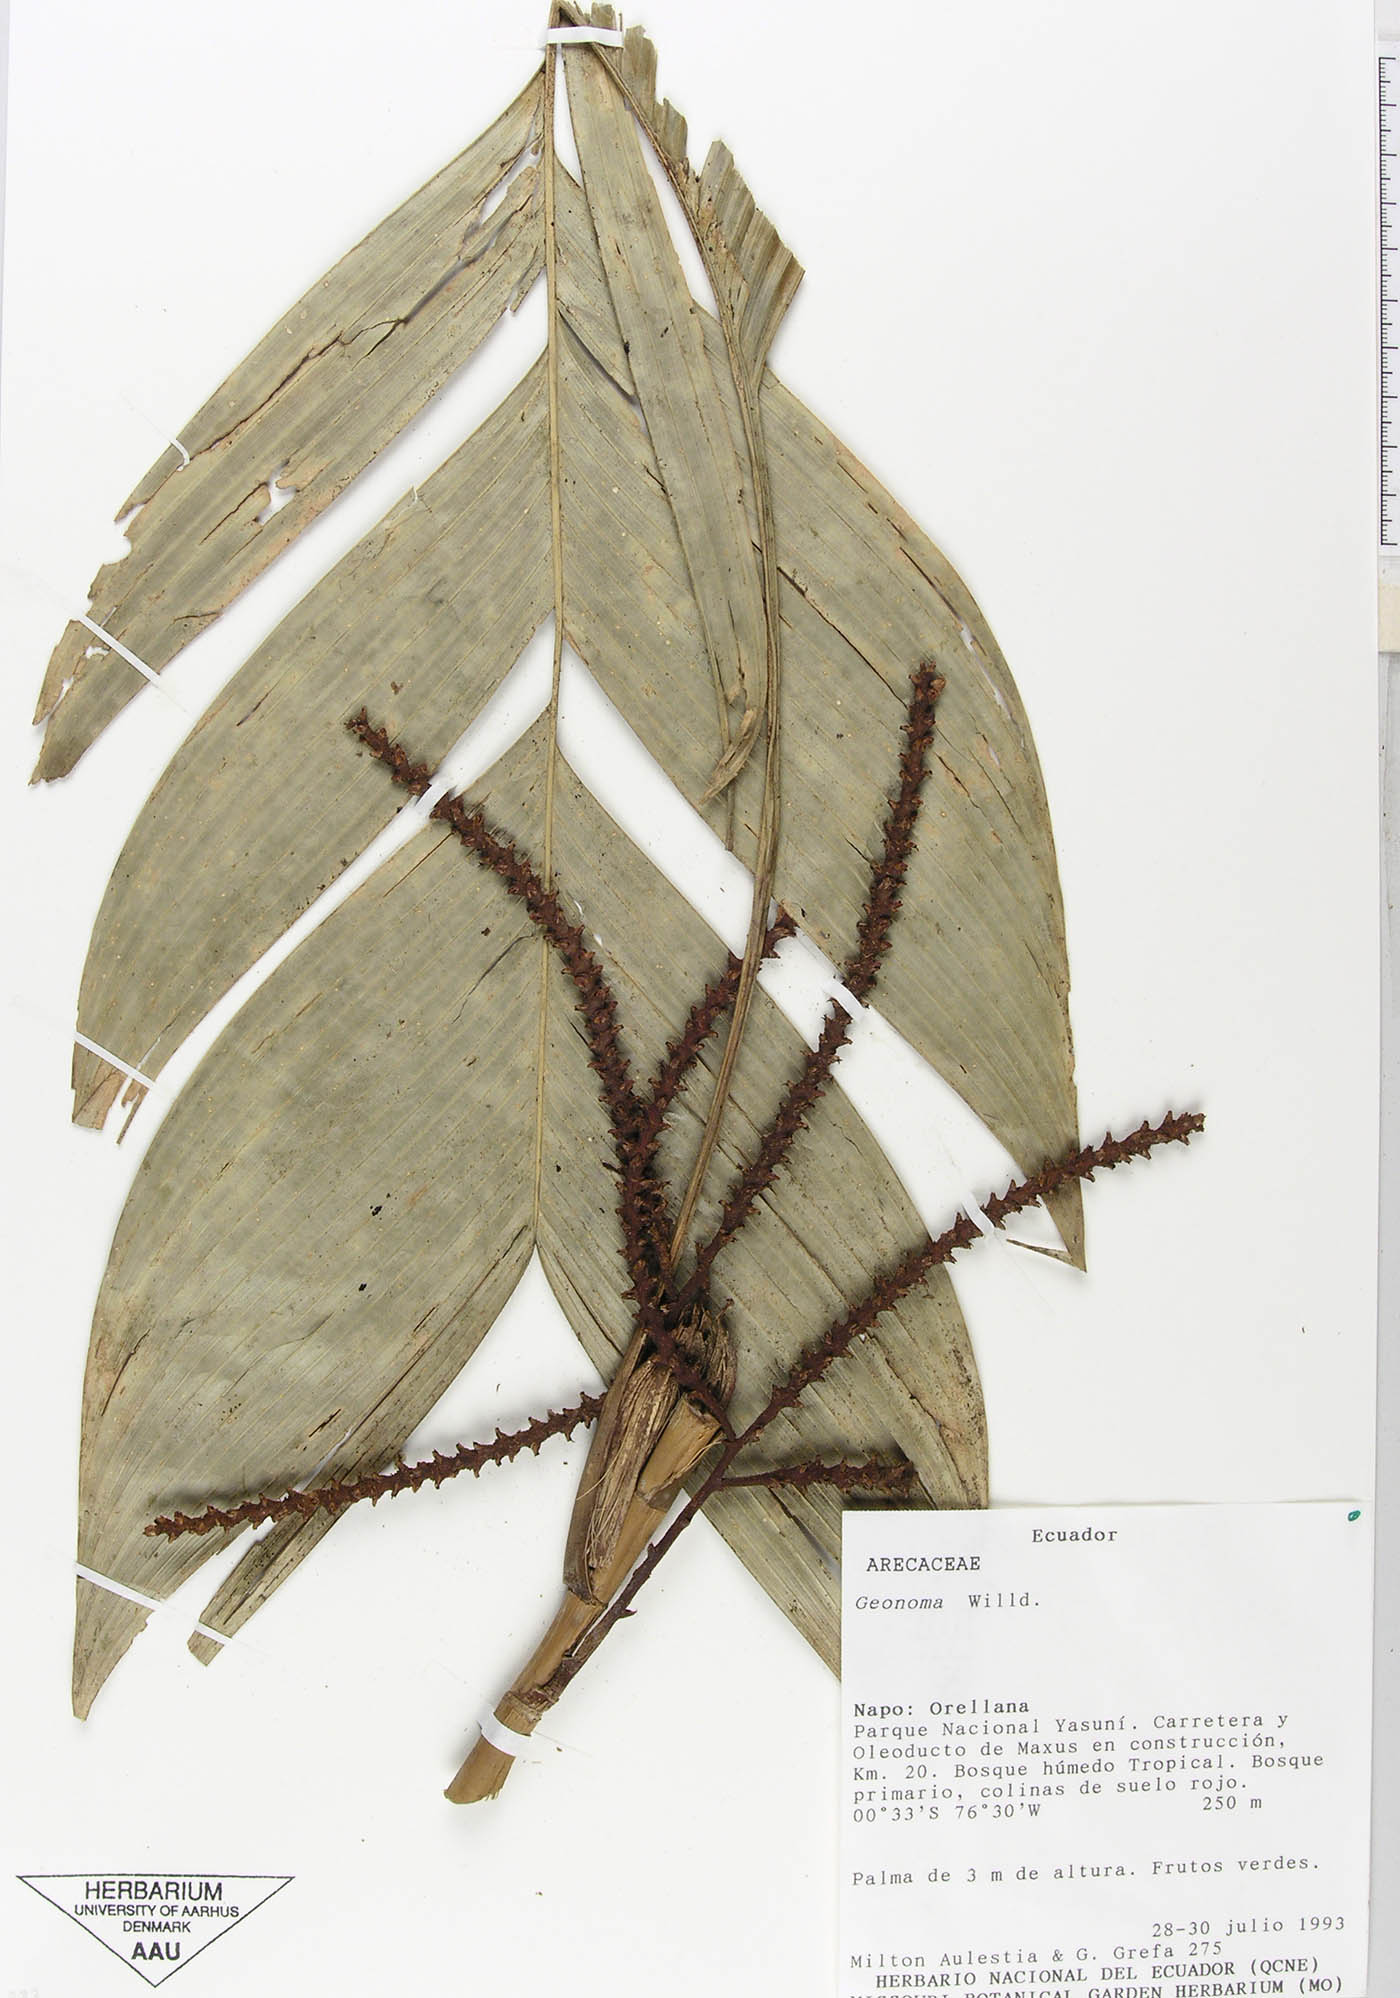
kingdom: Plantae
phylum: Tracheophyta
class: Liliopsida
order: Arecales
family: Arecaceae
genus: Geonoma
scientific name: Geonoma stricta
